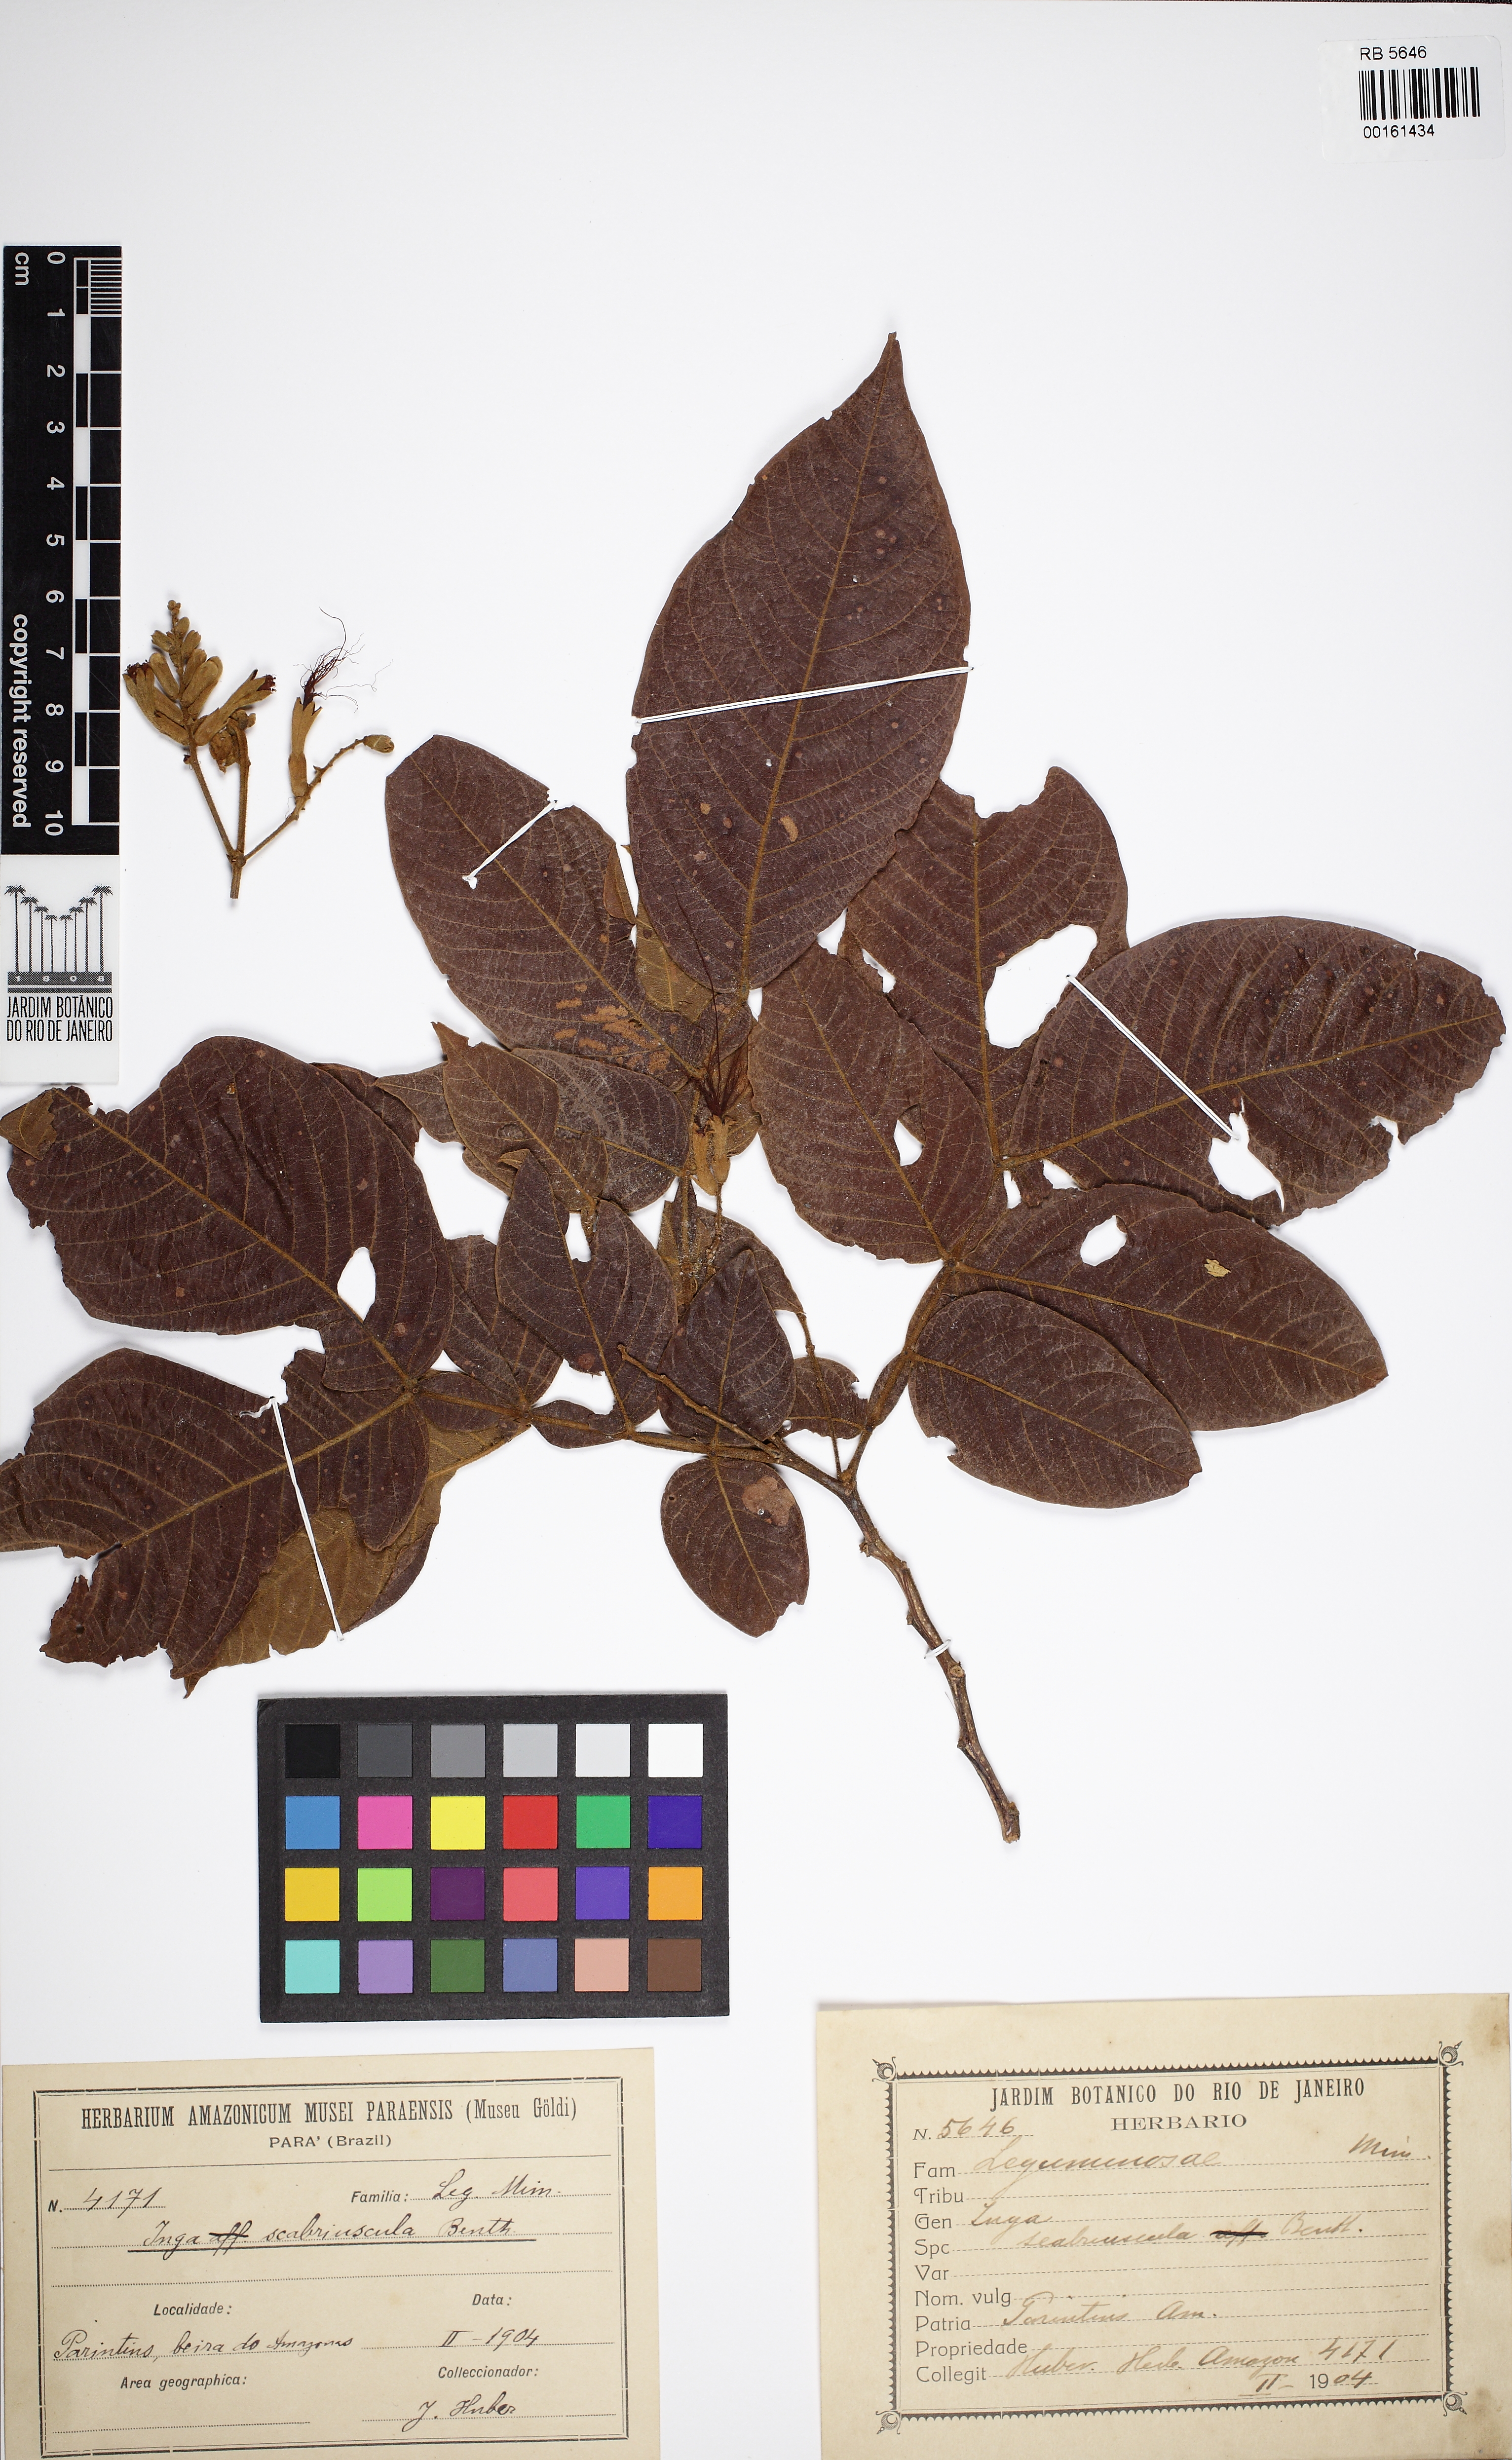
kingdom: Plantae
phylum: Tracheophyta
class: Magnoliopsida
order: Fabales
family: Fabaceae
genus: Inga
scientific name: Inga edulis
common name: Ice cream bean
